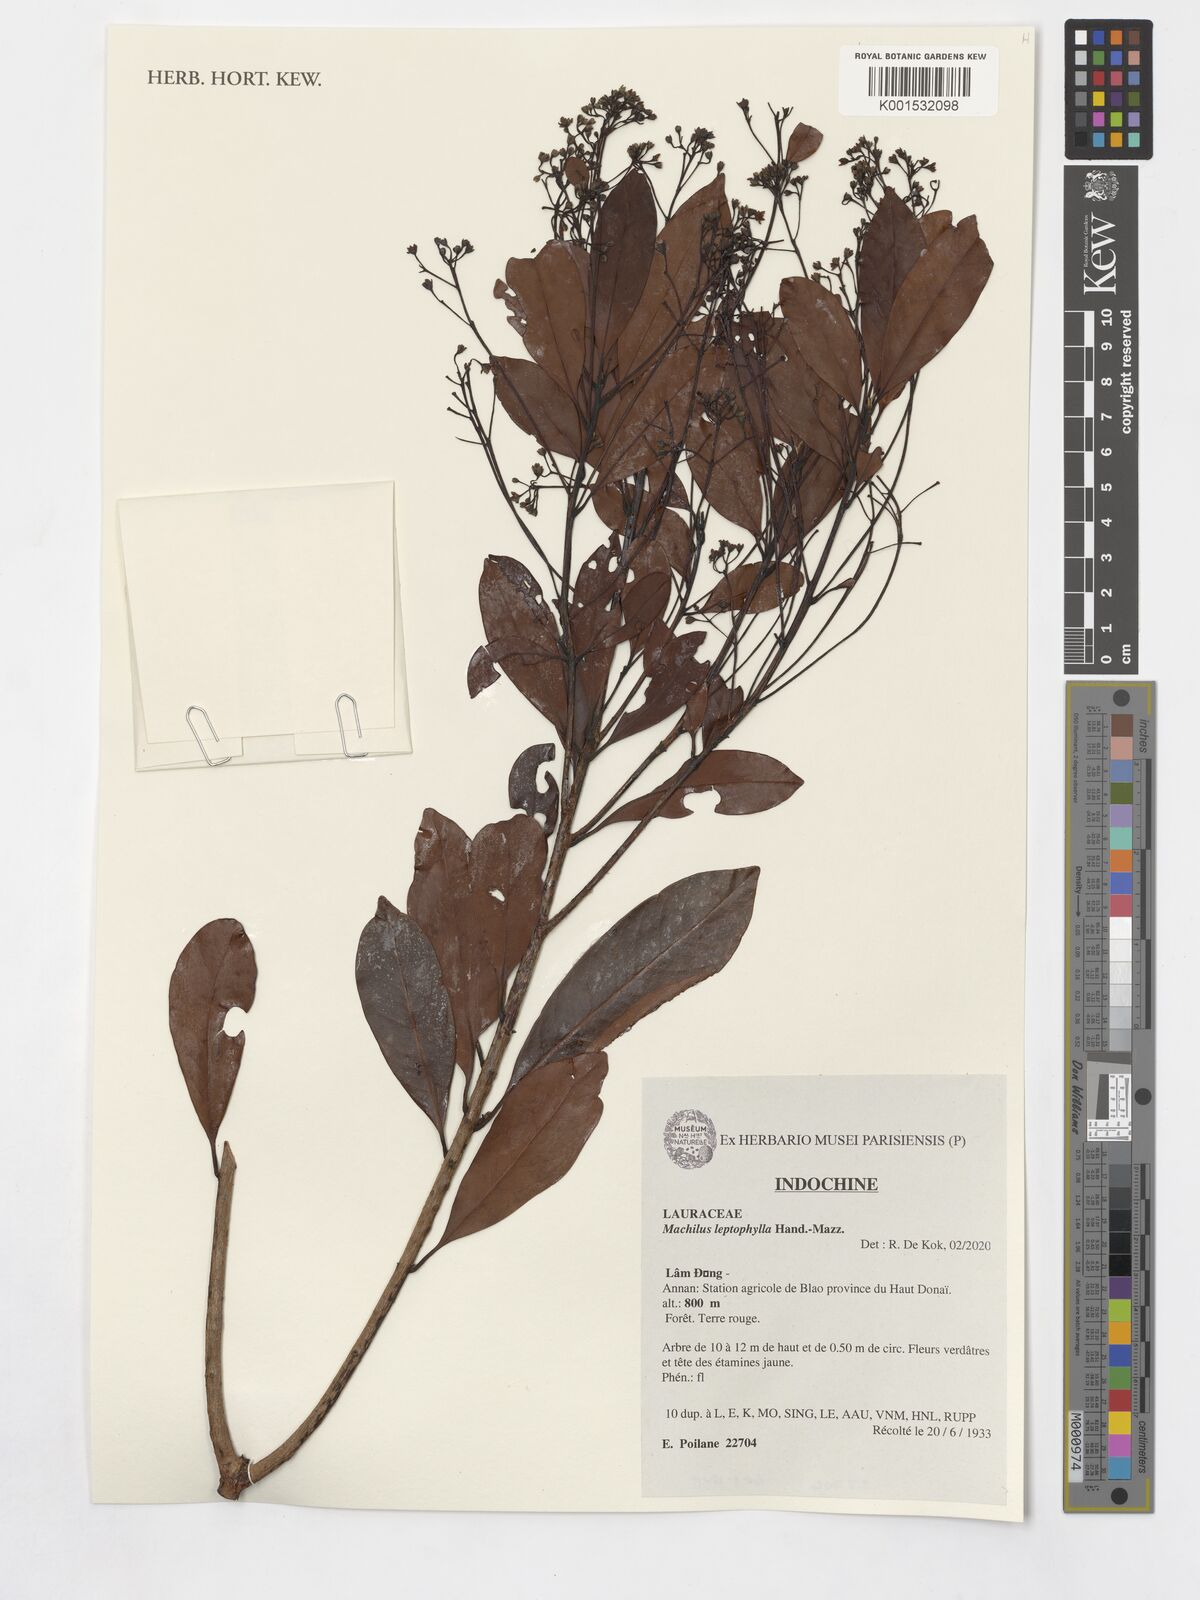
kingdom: Plantae
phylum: Tracheophyta
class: Magnoliopsida
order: Laurales
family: Lauraceae
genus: Machilus
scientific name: Machilus leptophylla
